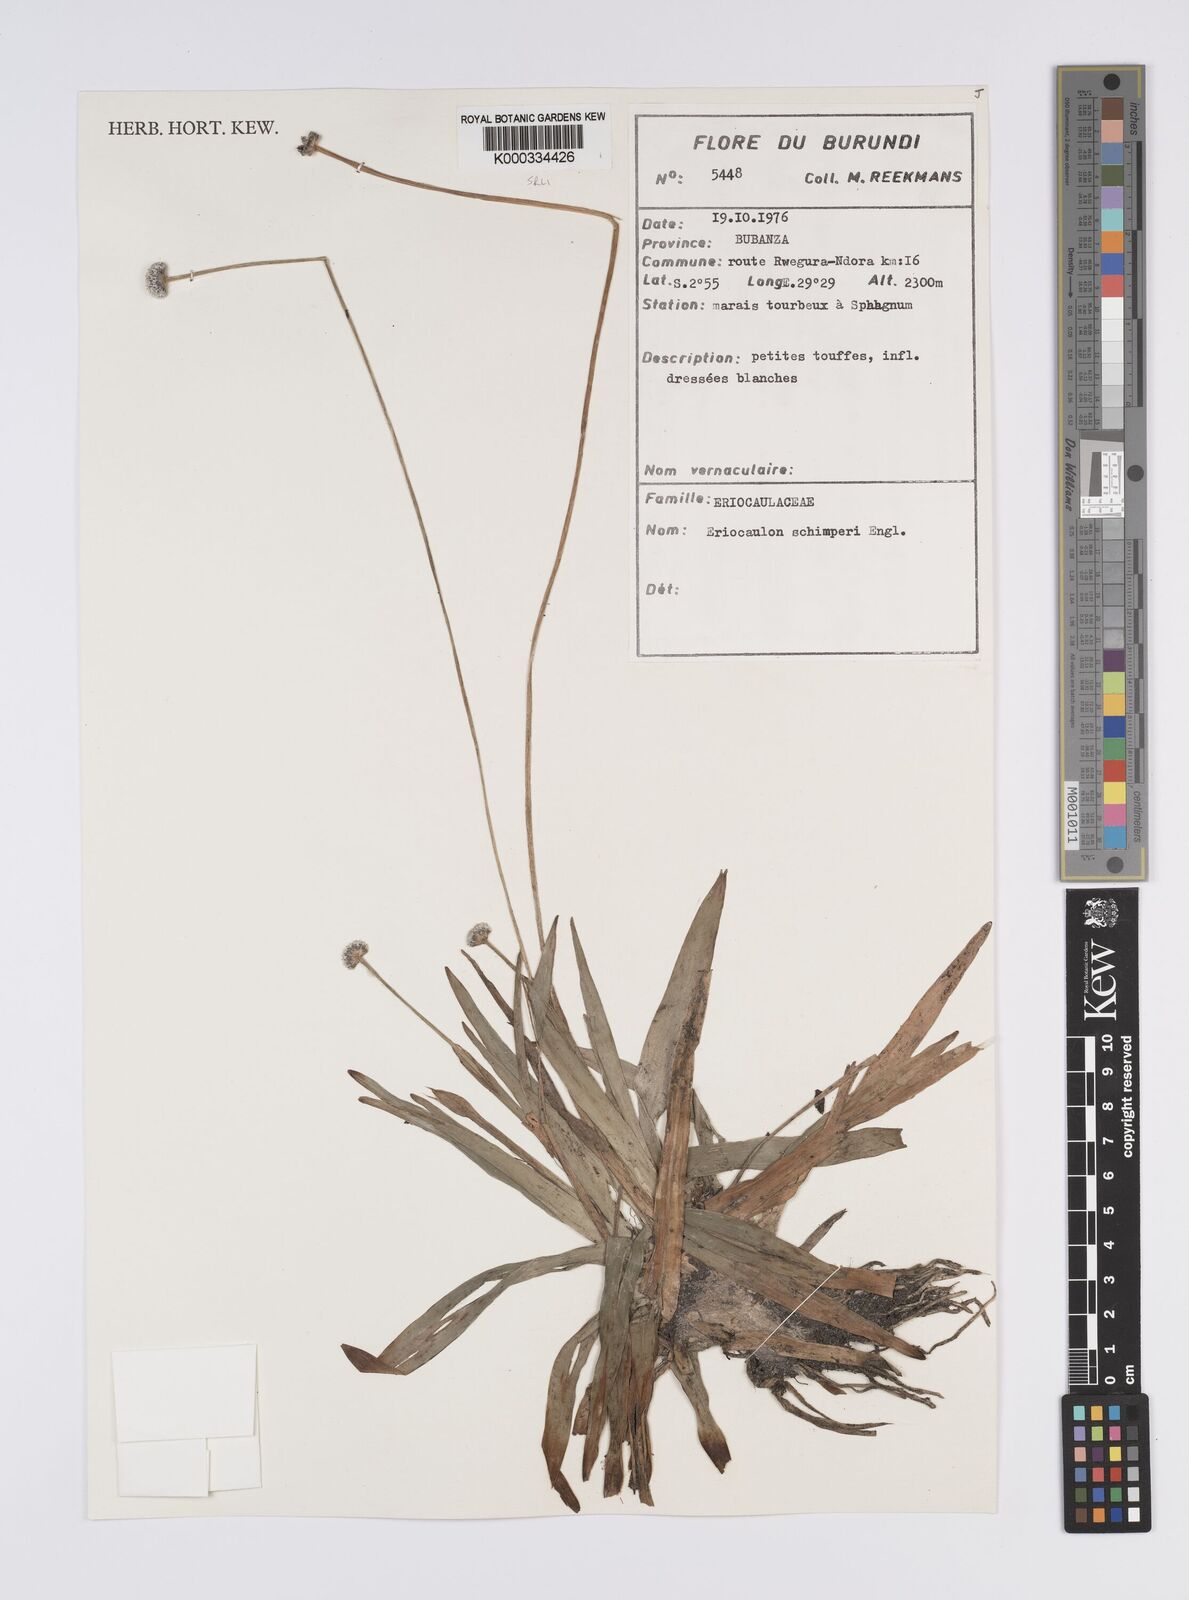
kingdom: Plantae
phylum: Tracheophyta
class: Liliopsida
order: Poales
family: Eriocaulaceae
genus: Eriocaulon
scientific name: Eriocaulon
